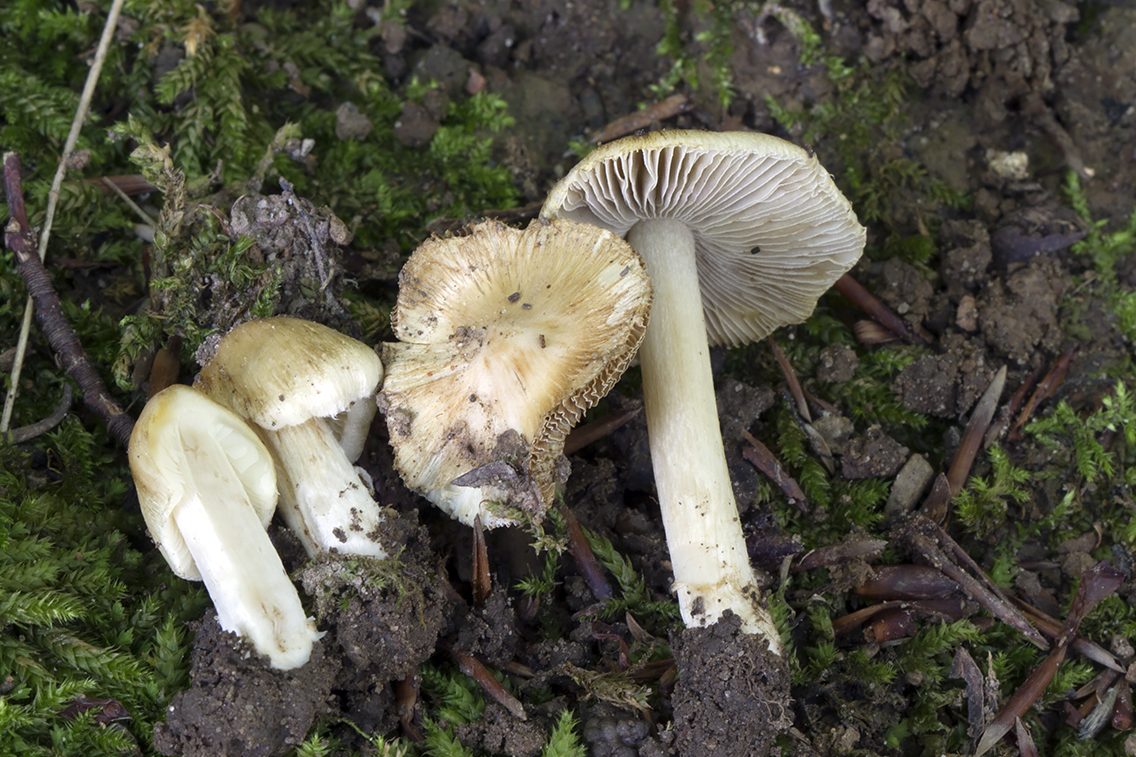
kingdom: Fungi
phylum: Basidiomycota
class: Agaricomycetes
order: Agaricales
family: Inocybaceae
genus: Pseudosperma
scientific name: Pseudosperma aureocitrinum
